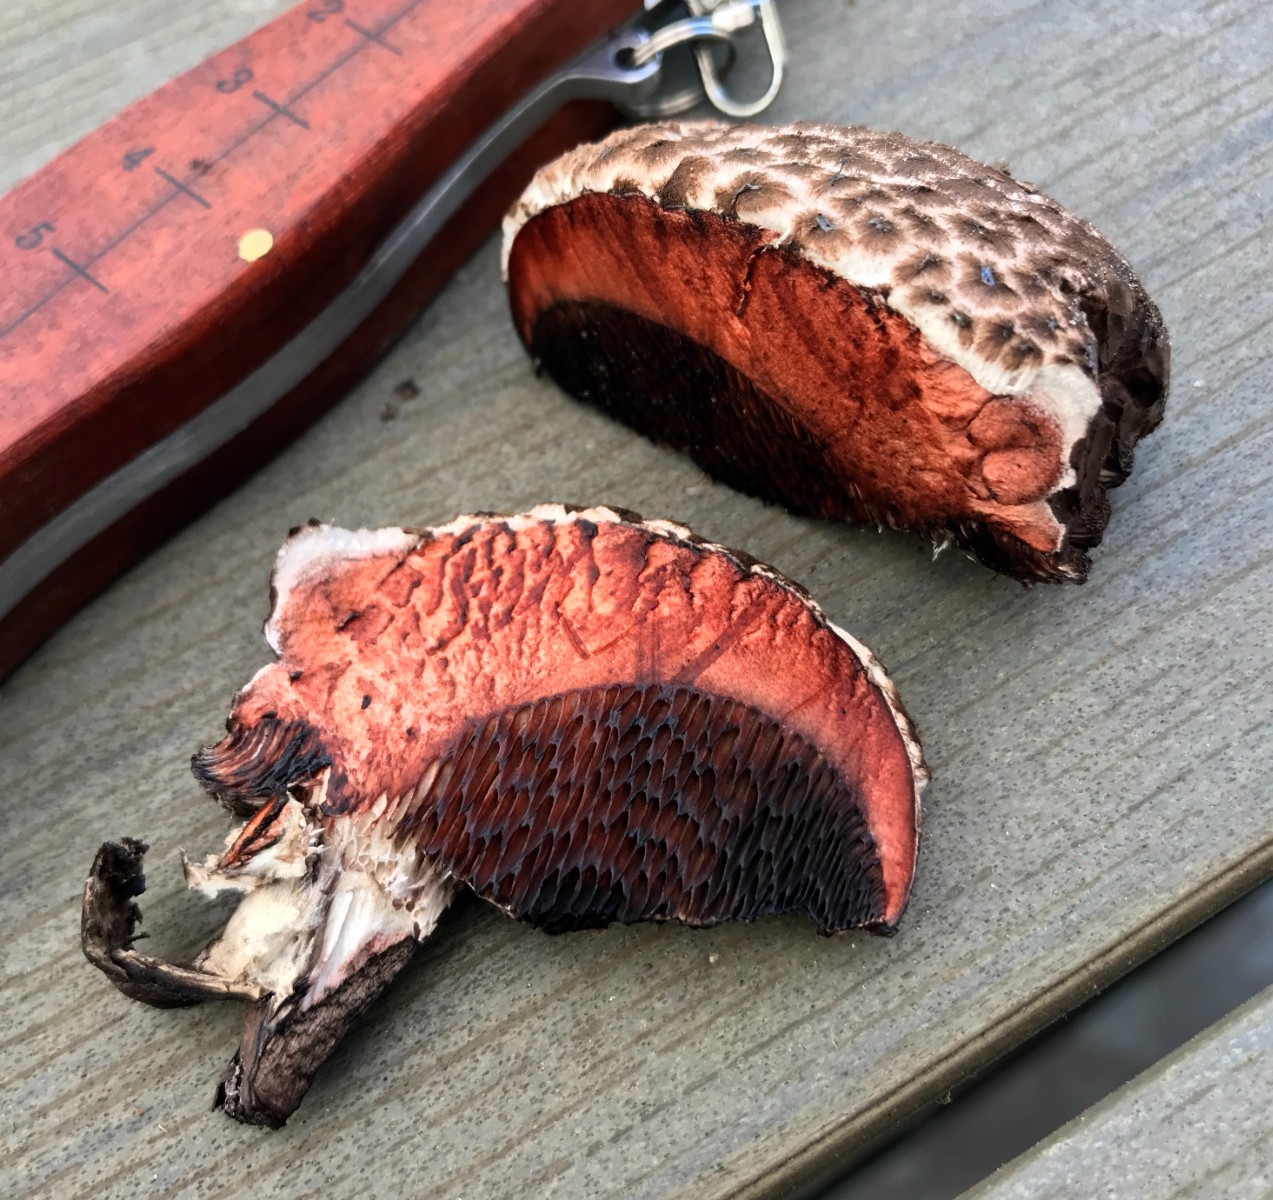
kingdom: Fungi
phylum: Basidiomycota
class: Agaricomycetes
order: Boletales
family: Boletaceae
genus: Strobilomyces
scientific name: Strobilomyces strobilaceus
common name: koglerørhat
